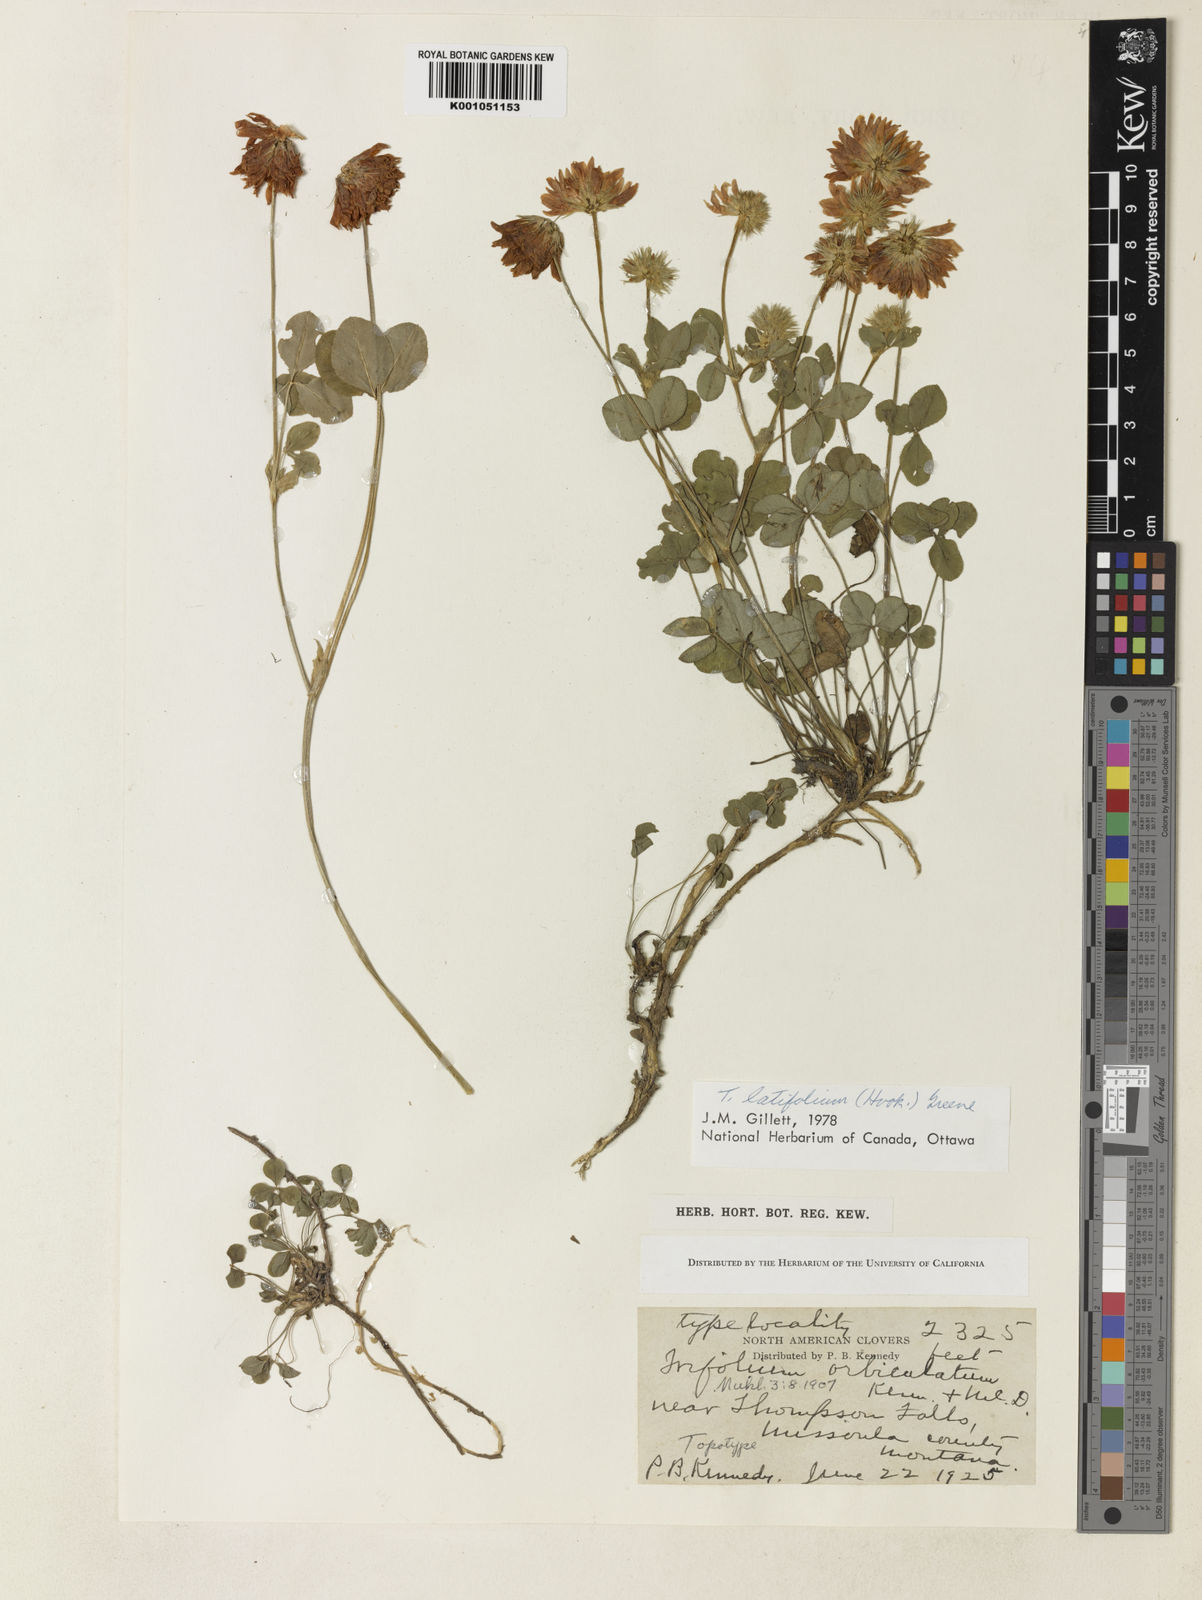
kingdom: Plantae
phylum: Tracheophyta
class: Magnoliopsida
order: Fabales
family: Fabaceae
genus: Trifolium
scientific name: Trifolium latifolium
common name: Broadleaf clover
